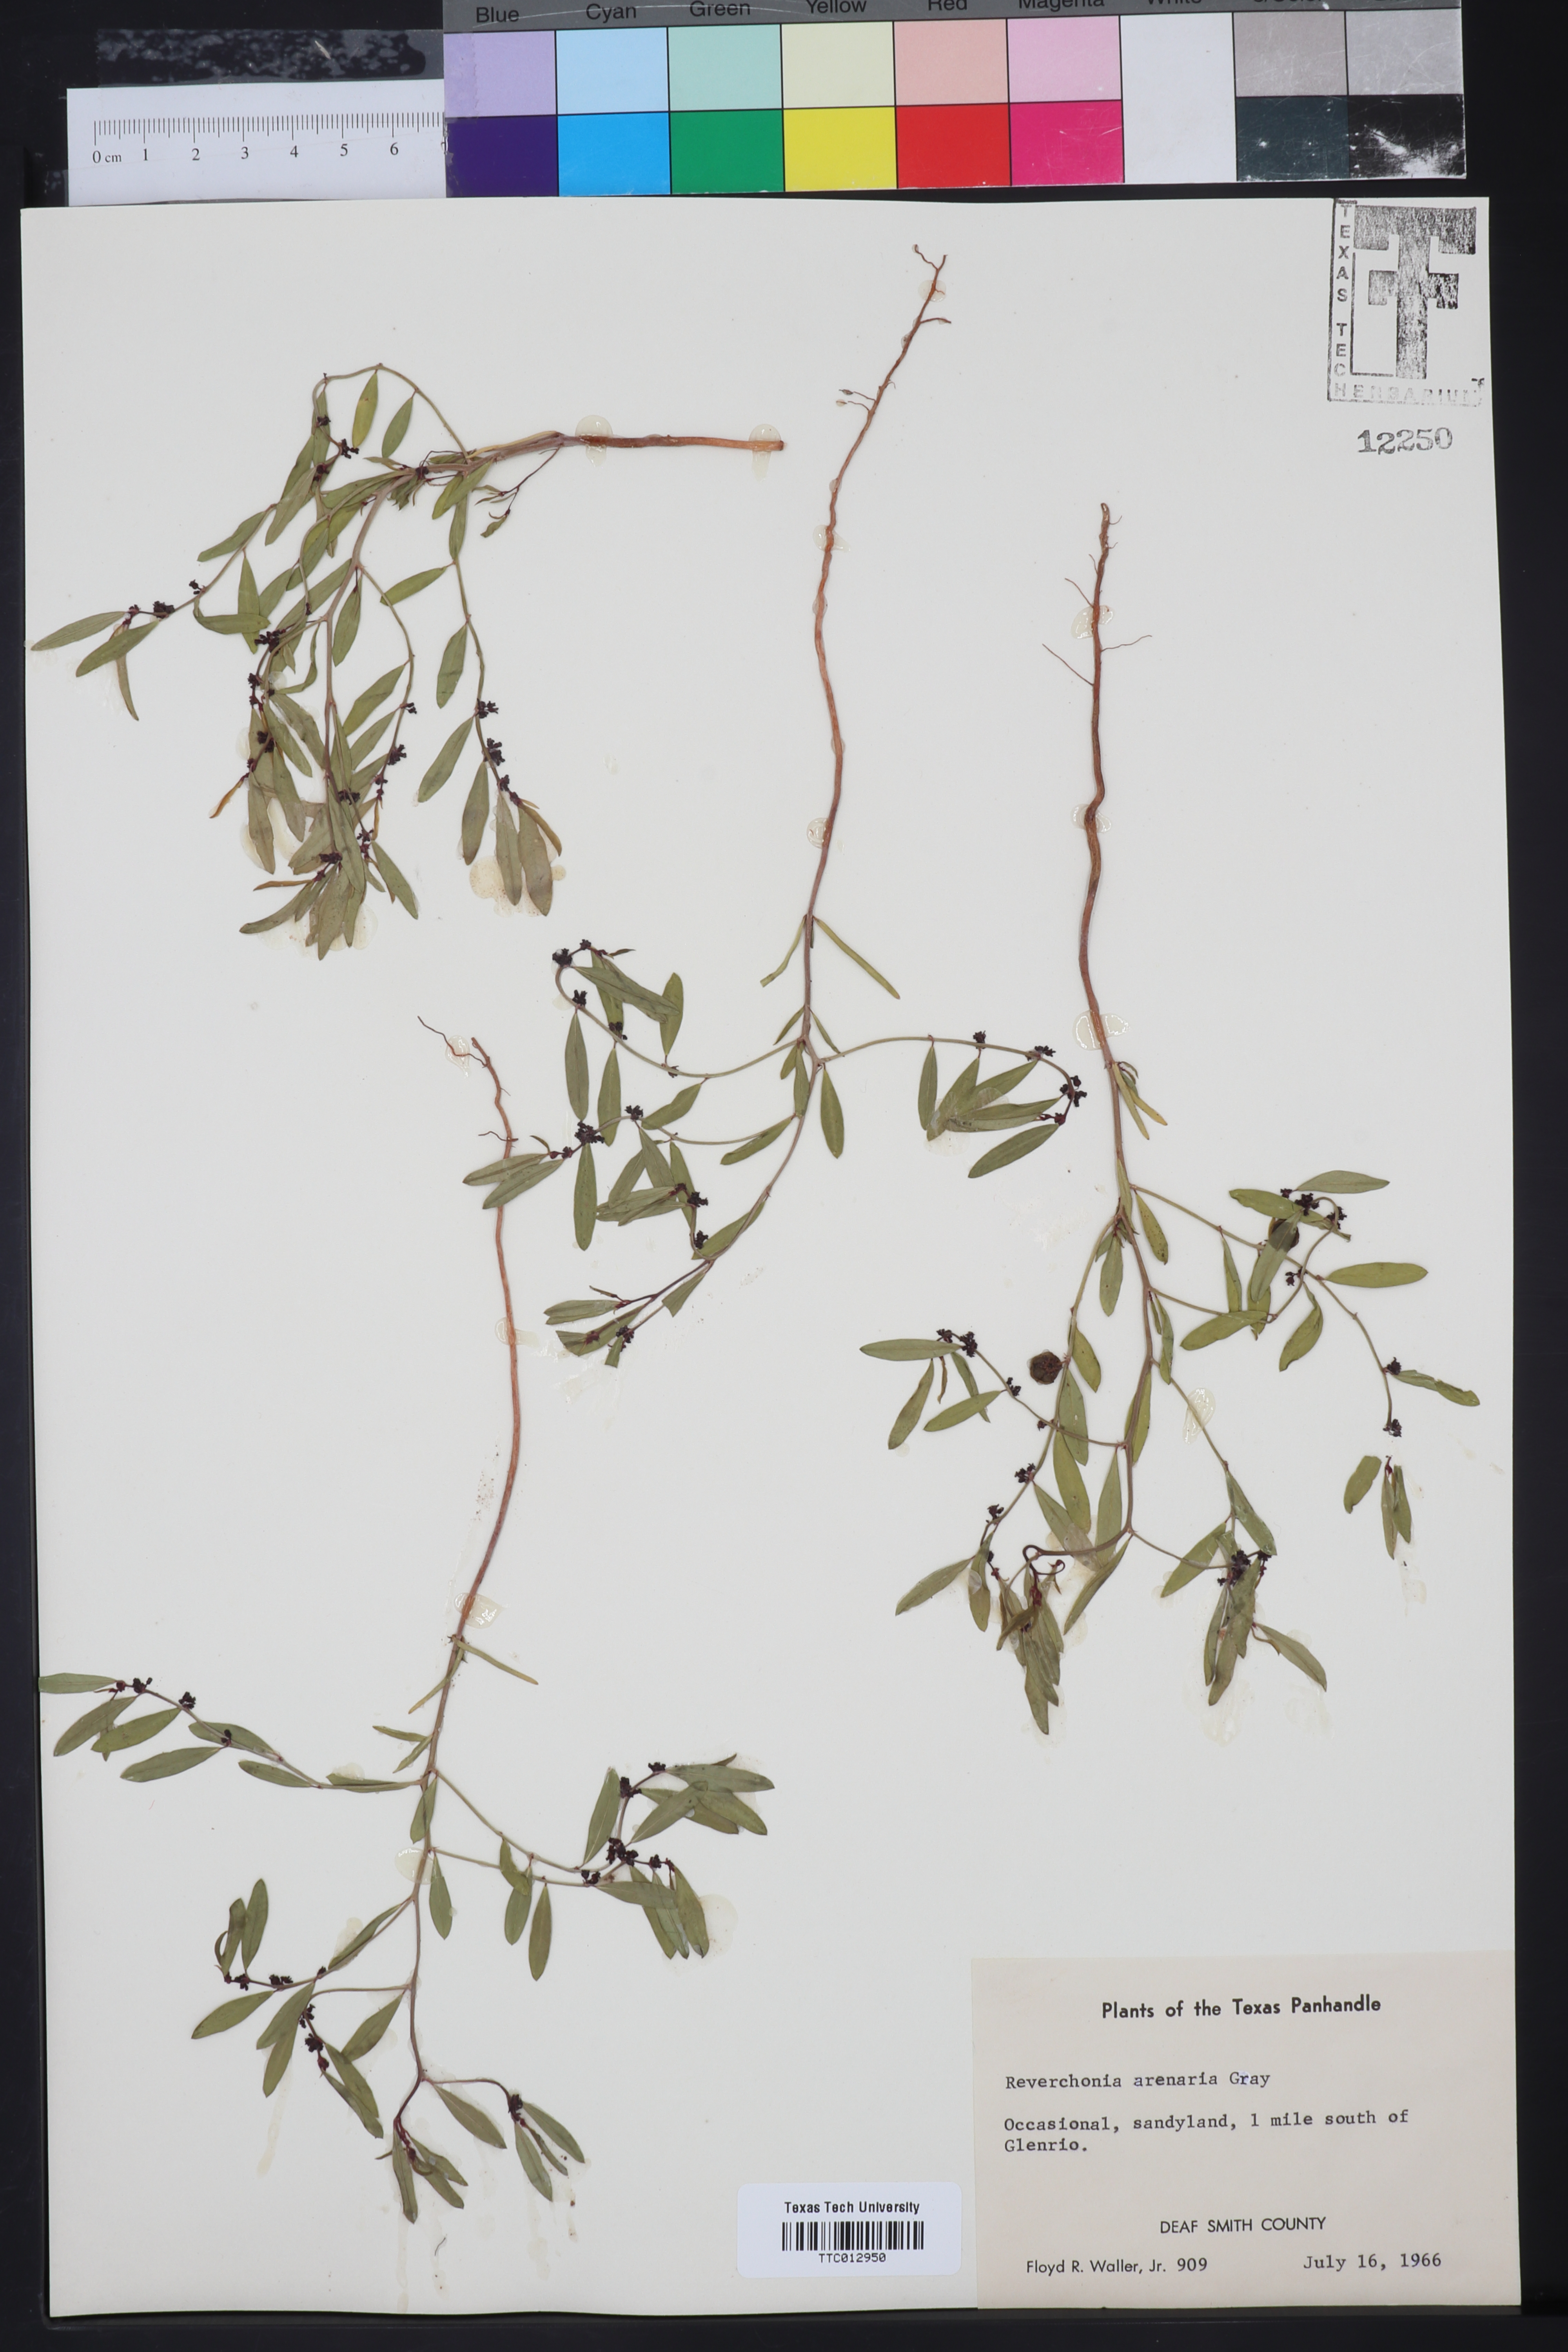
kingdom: Plantae
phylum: Tracheophyta
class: Magnoliopsida
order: Malpighiales
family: Phyllanthaceae
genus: Phyllanthus
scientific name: Phyllanthus warnockii
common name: Sand reverchonia
